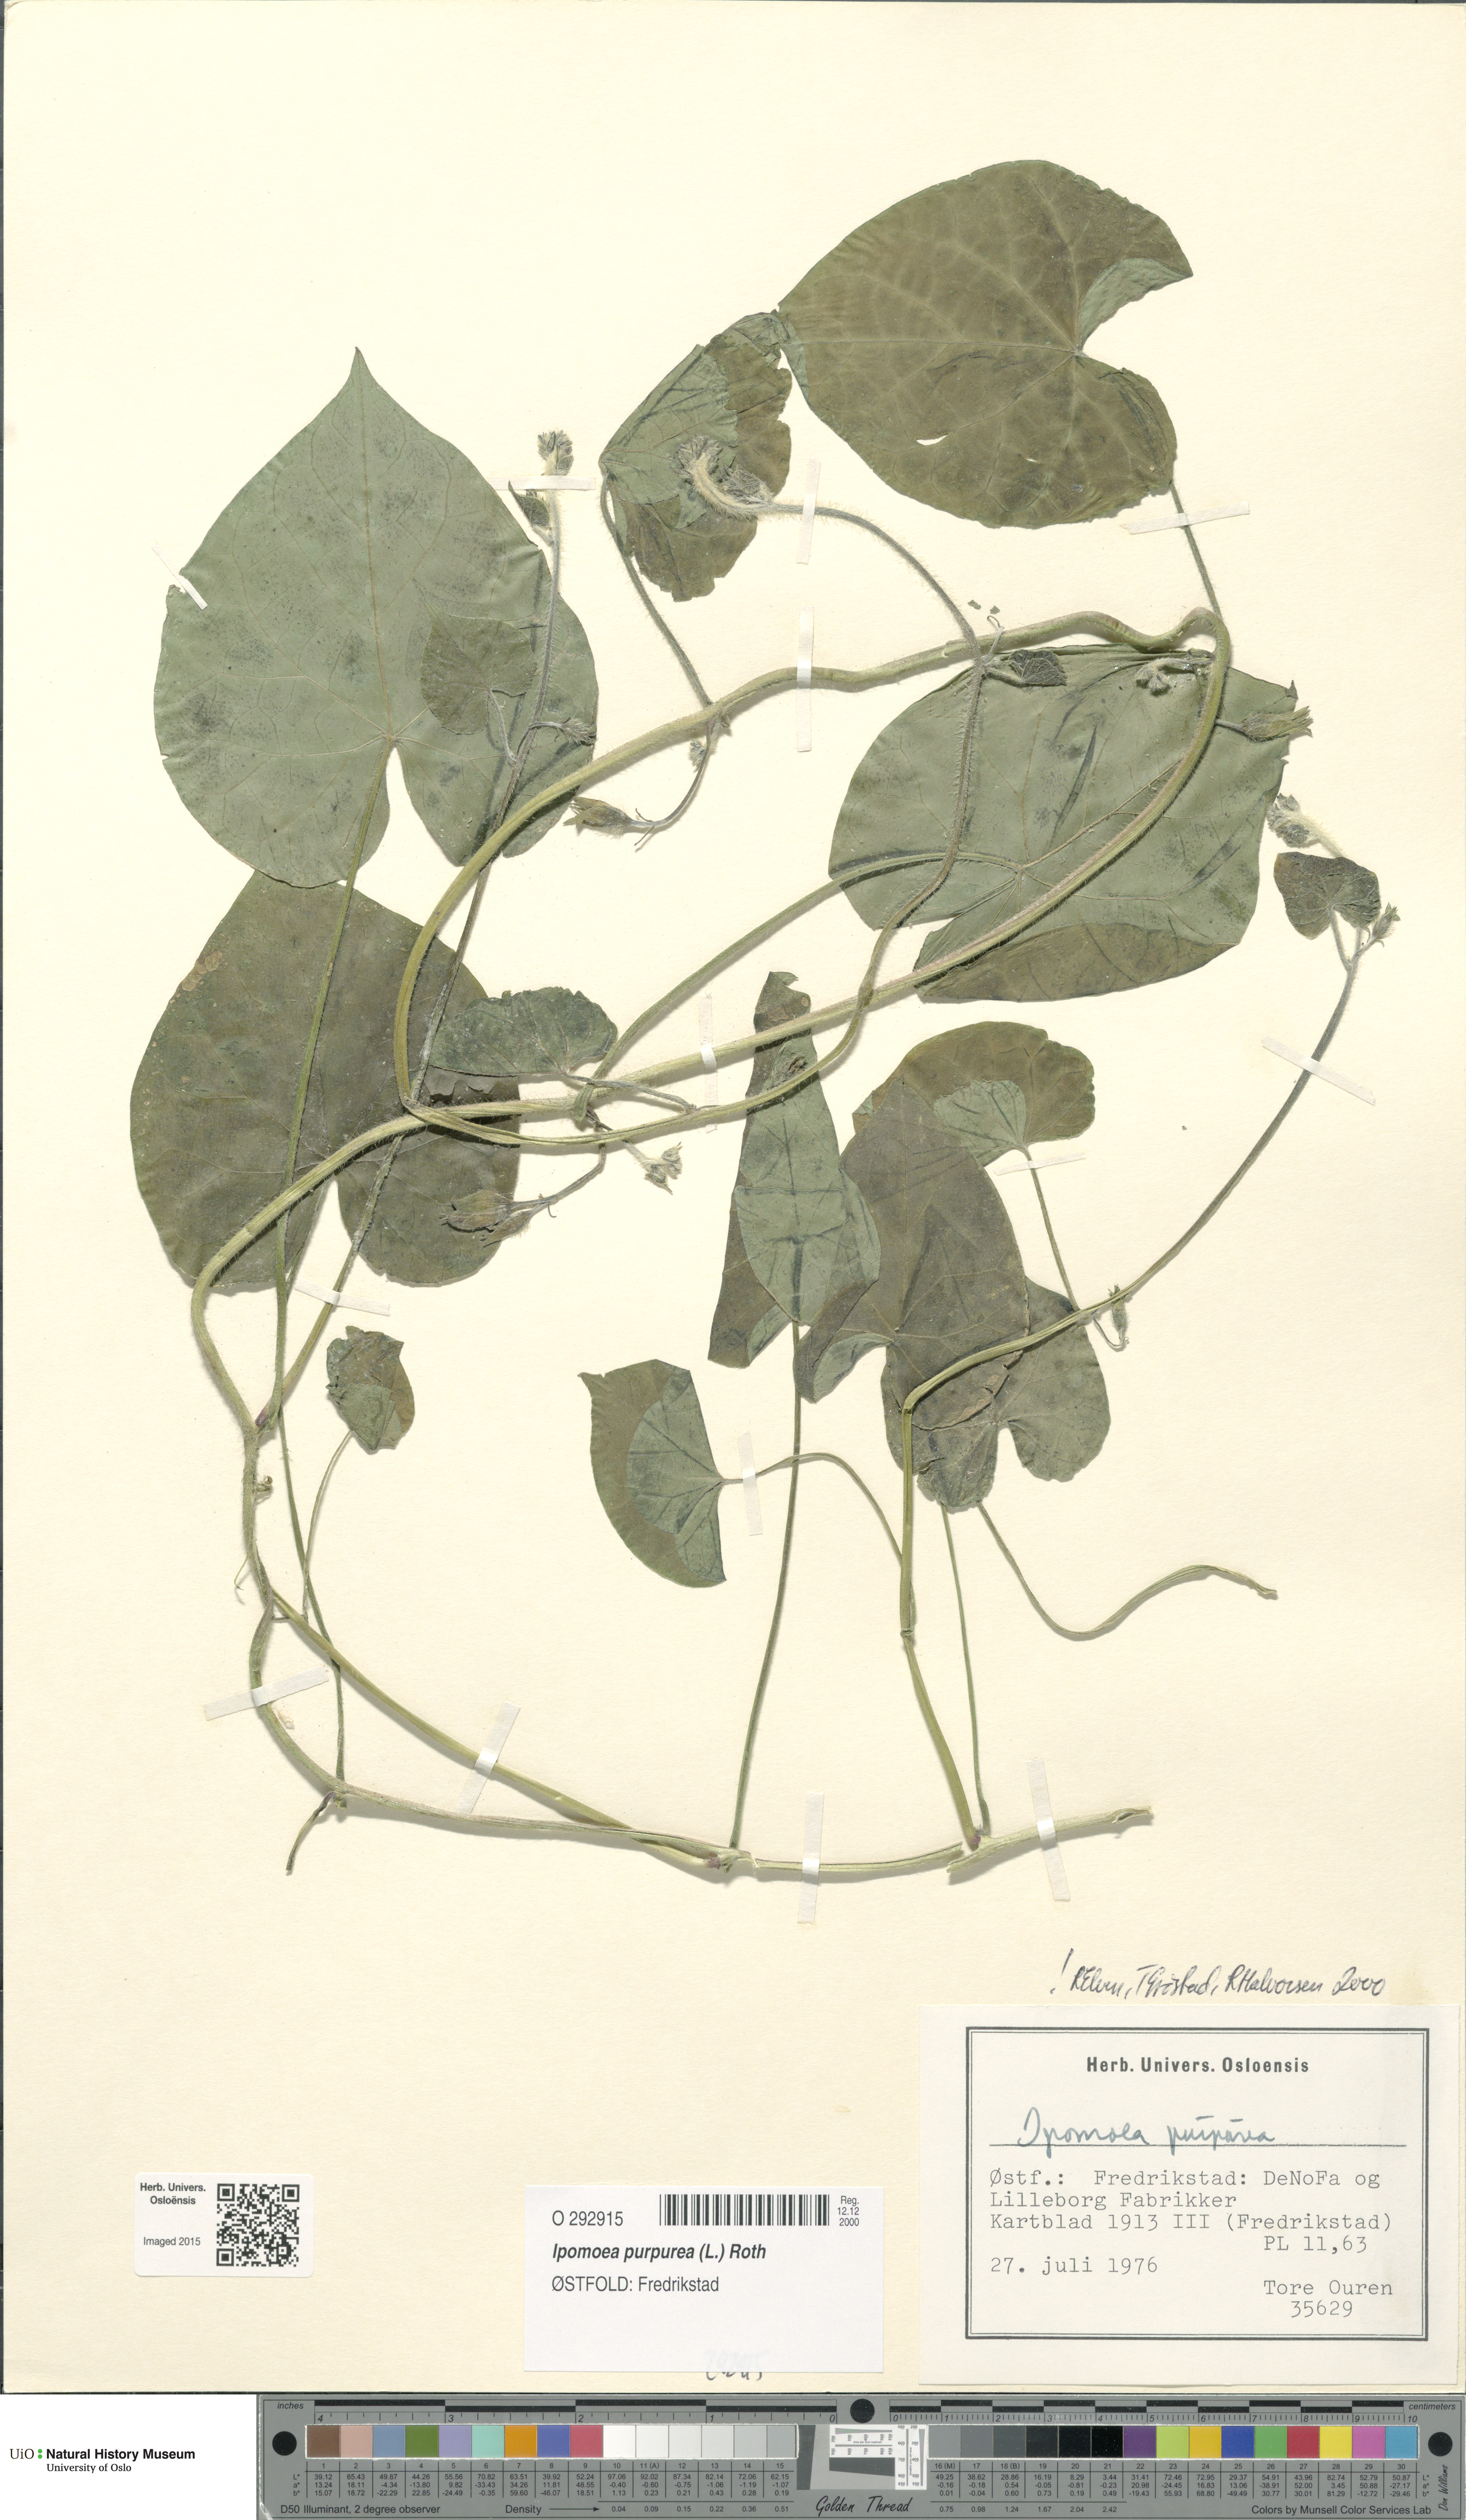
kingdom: Plantae
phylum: Tracheophyta
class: Magnoliopsida
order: Solanales
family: Convolvulaceae
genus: Ipomoea
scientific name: Ipomoea purpurea
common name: Common morning-glory
